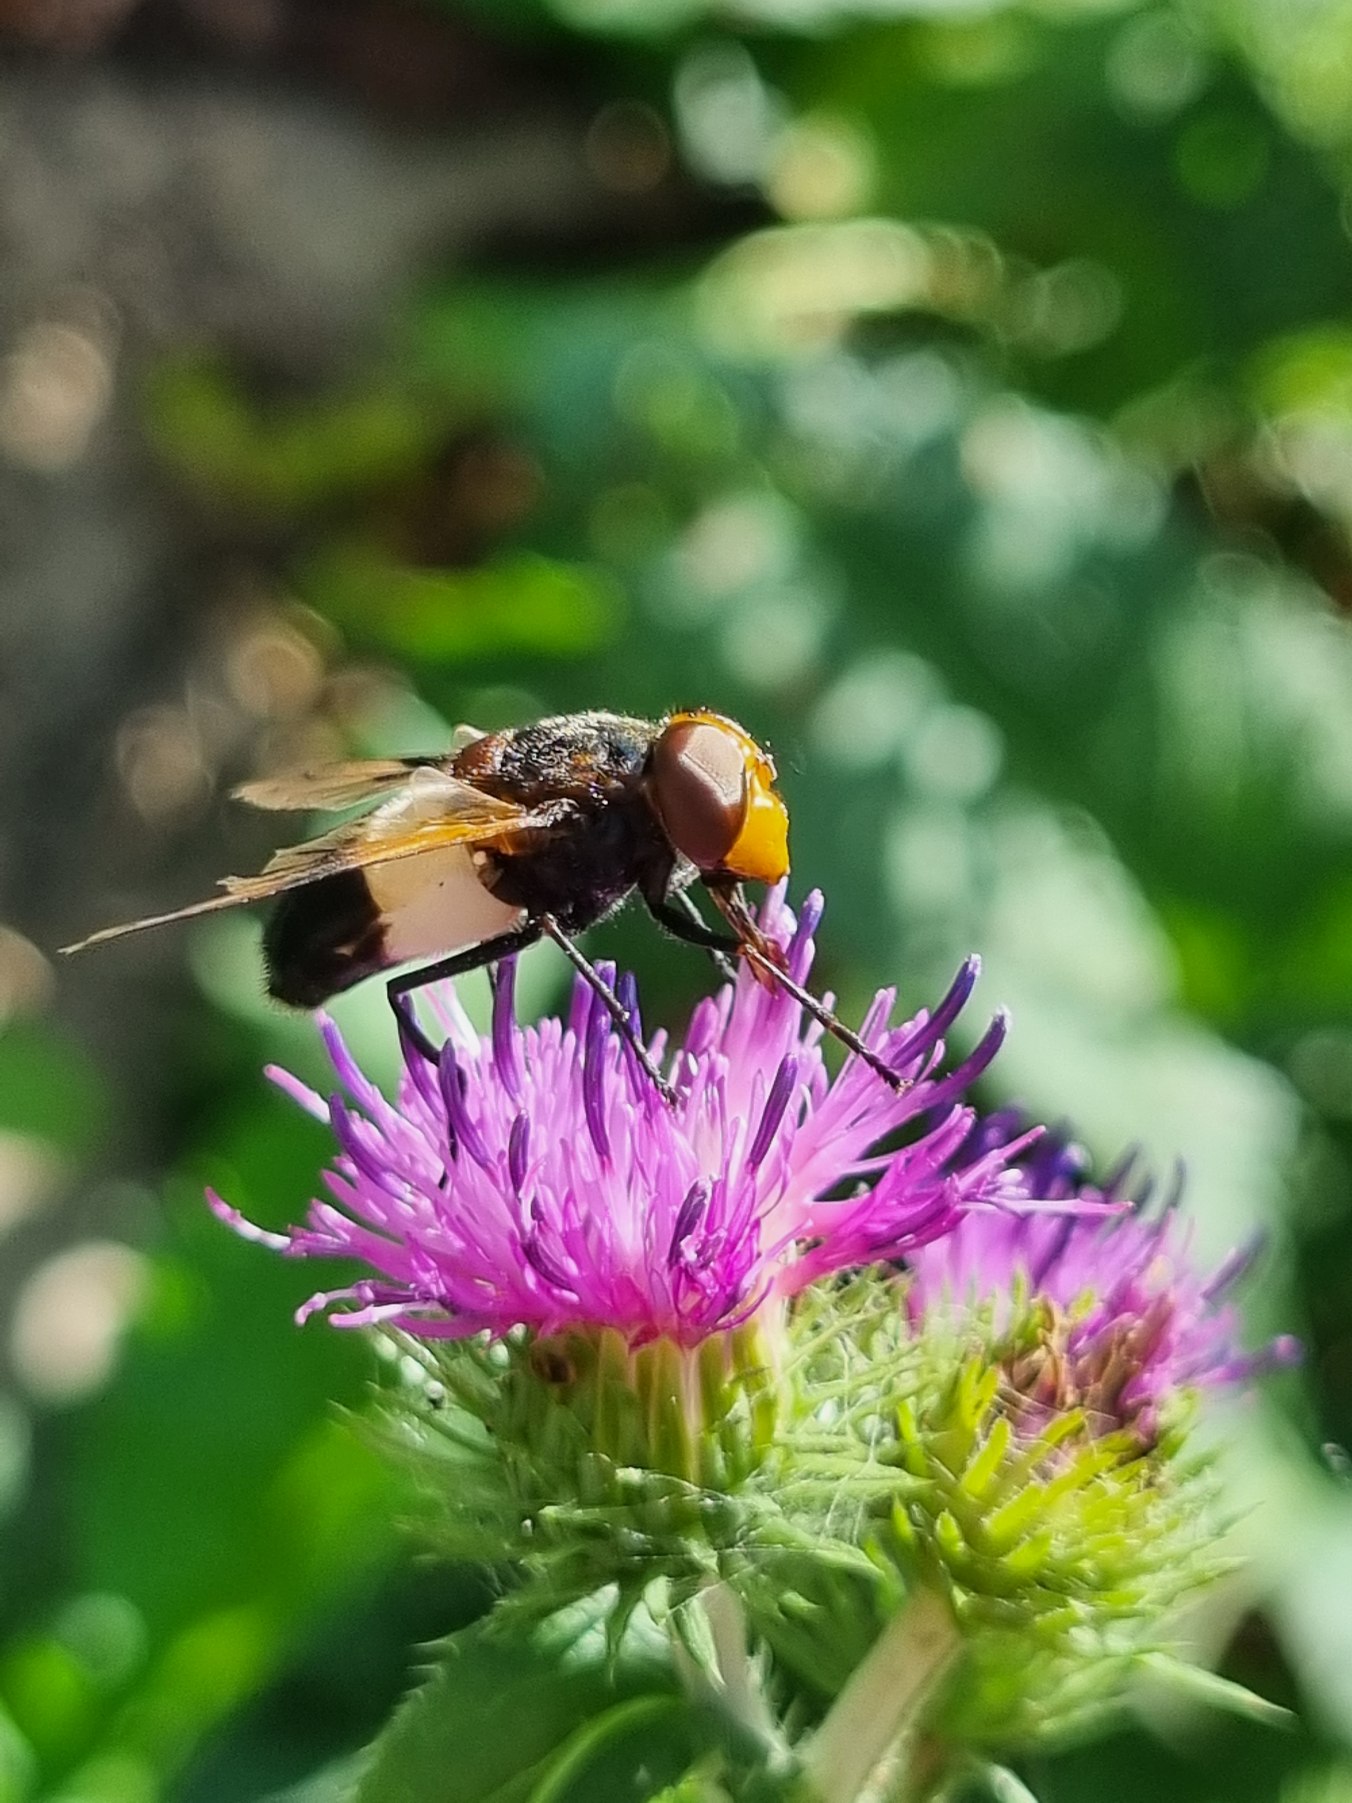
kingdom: Animalia
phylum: Arthropoda
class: Insecta
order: Diptera
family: Syrphidae
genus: Volucella
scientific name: Volucella pellucens
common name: Hvidbåndet humlesvirreflue
